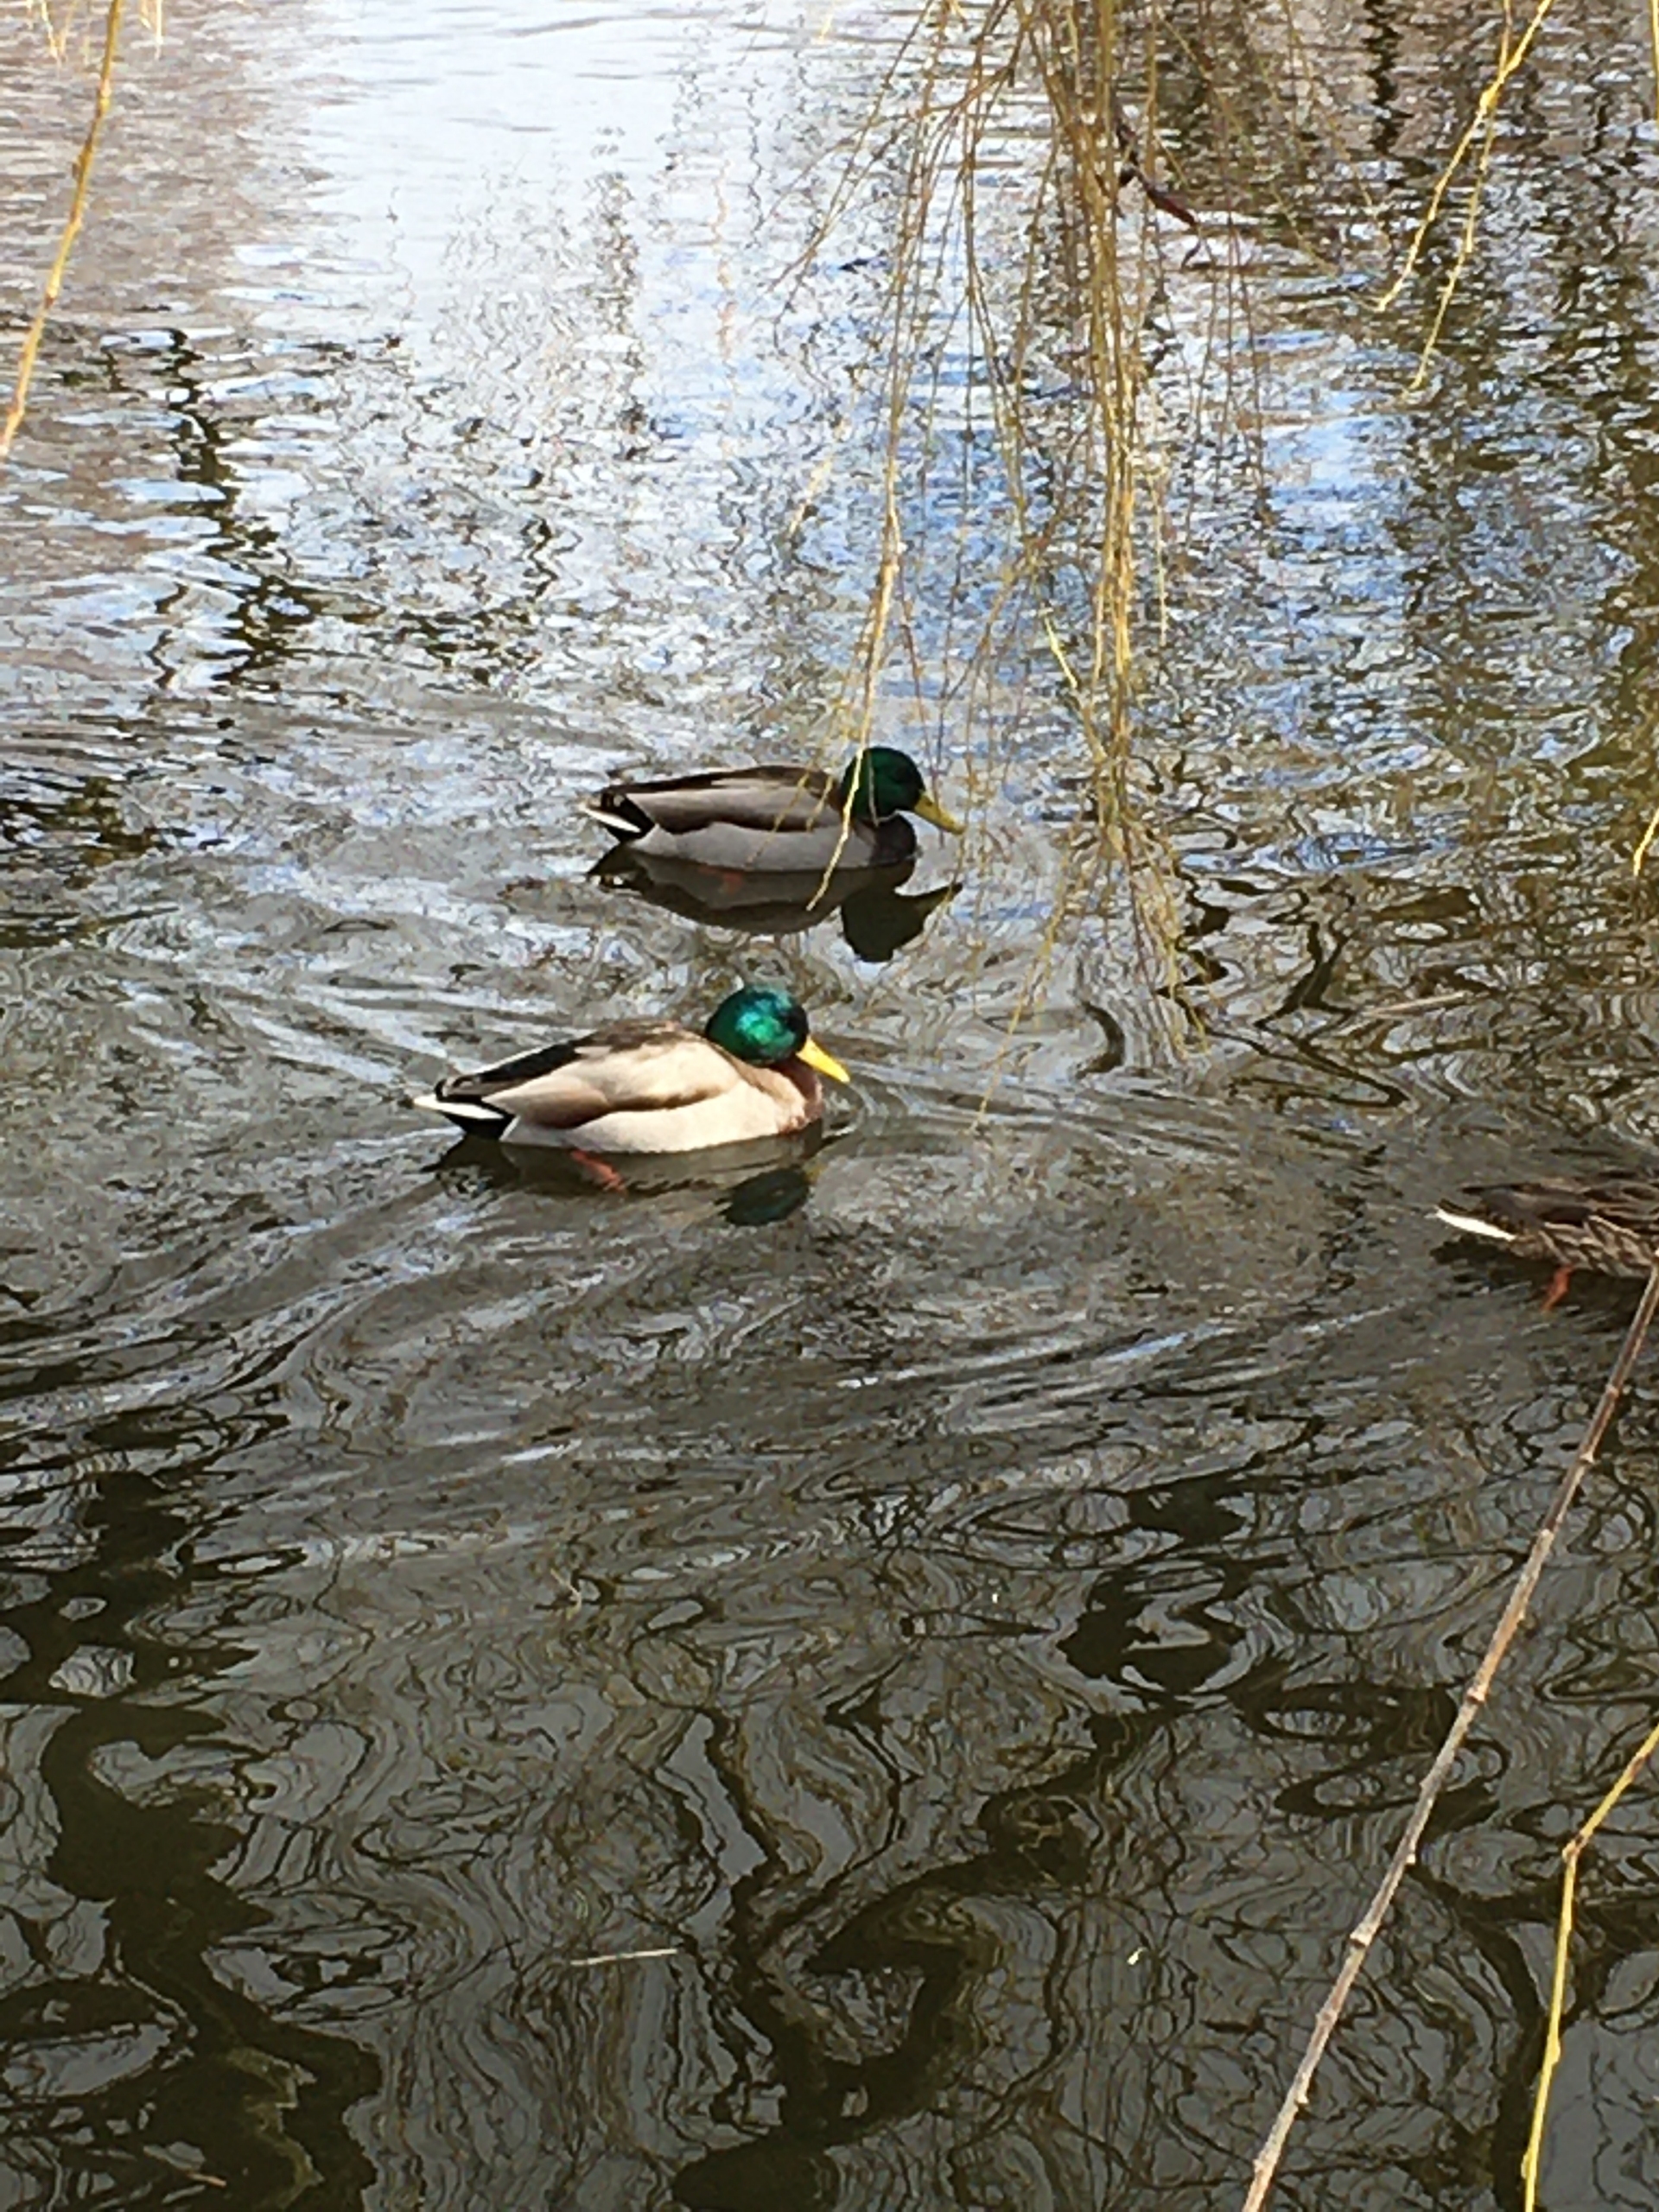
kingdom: Animalia
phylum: Chordata
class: Aves
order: Anseriformes
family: Anatidae
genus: Anas
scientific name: Anas platyrhynchos
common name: Gråand
